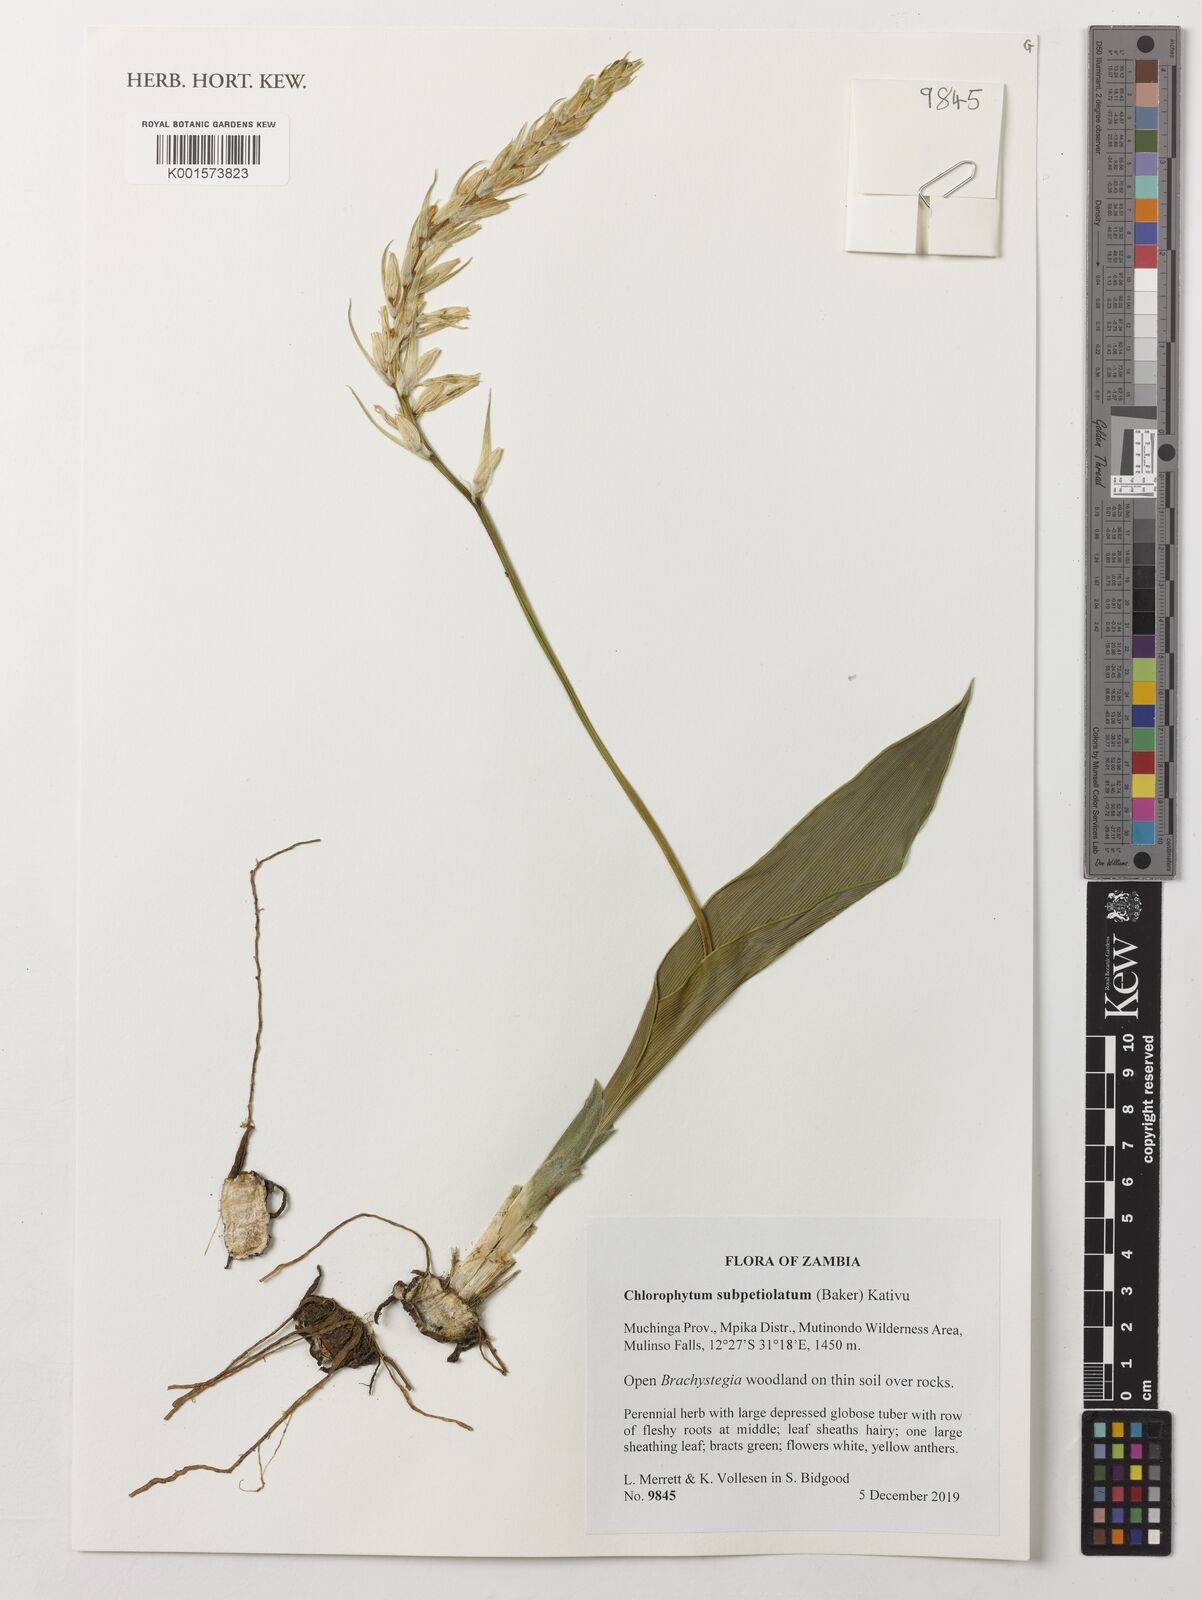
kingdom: Plantae
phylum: Tracheophyta
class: Liliopsida
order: Asparagales
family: Asparagaceae
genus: Chlorophytum
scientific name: Chlorophytum subpetiolatum
